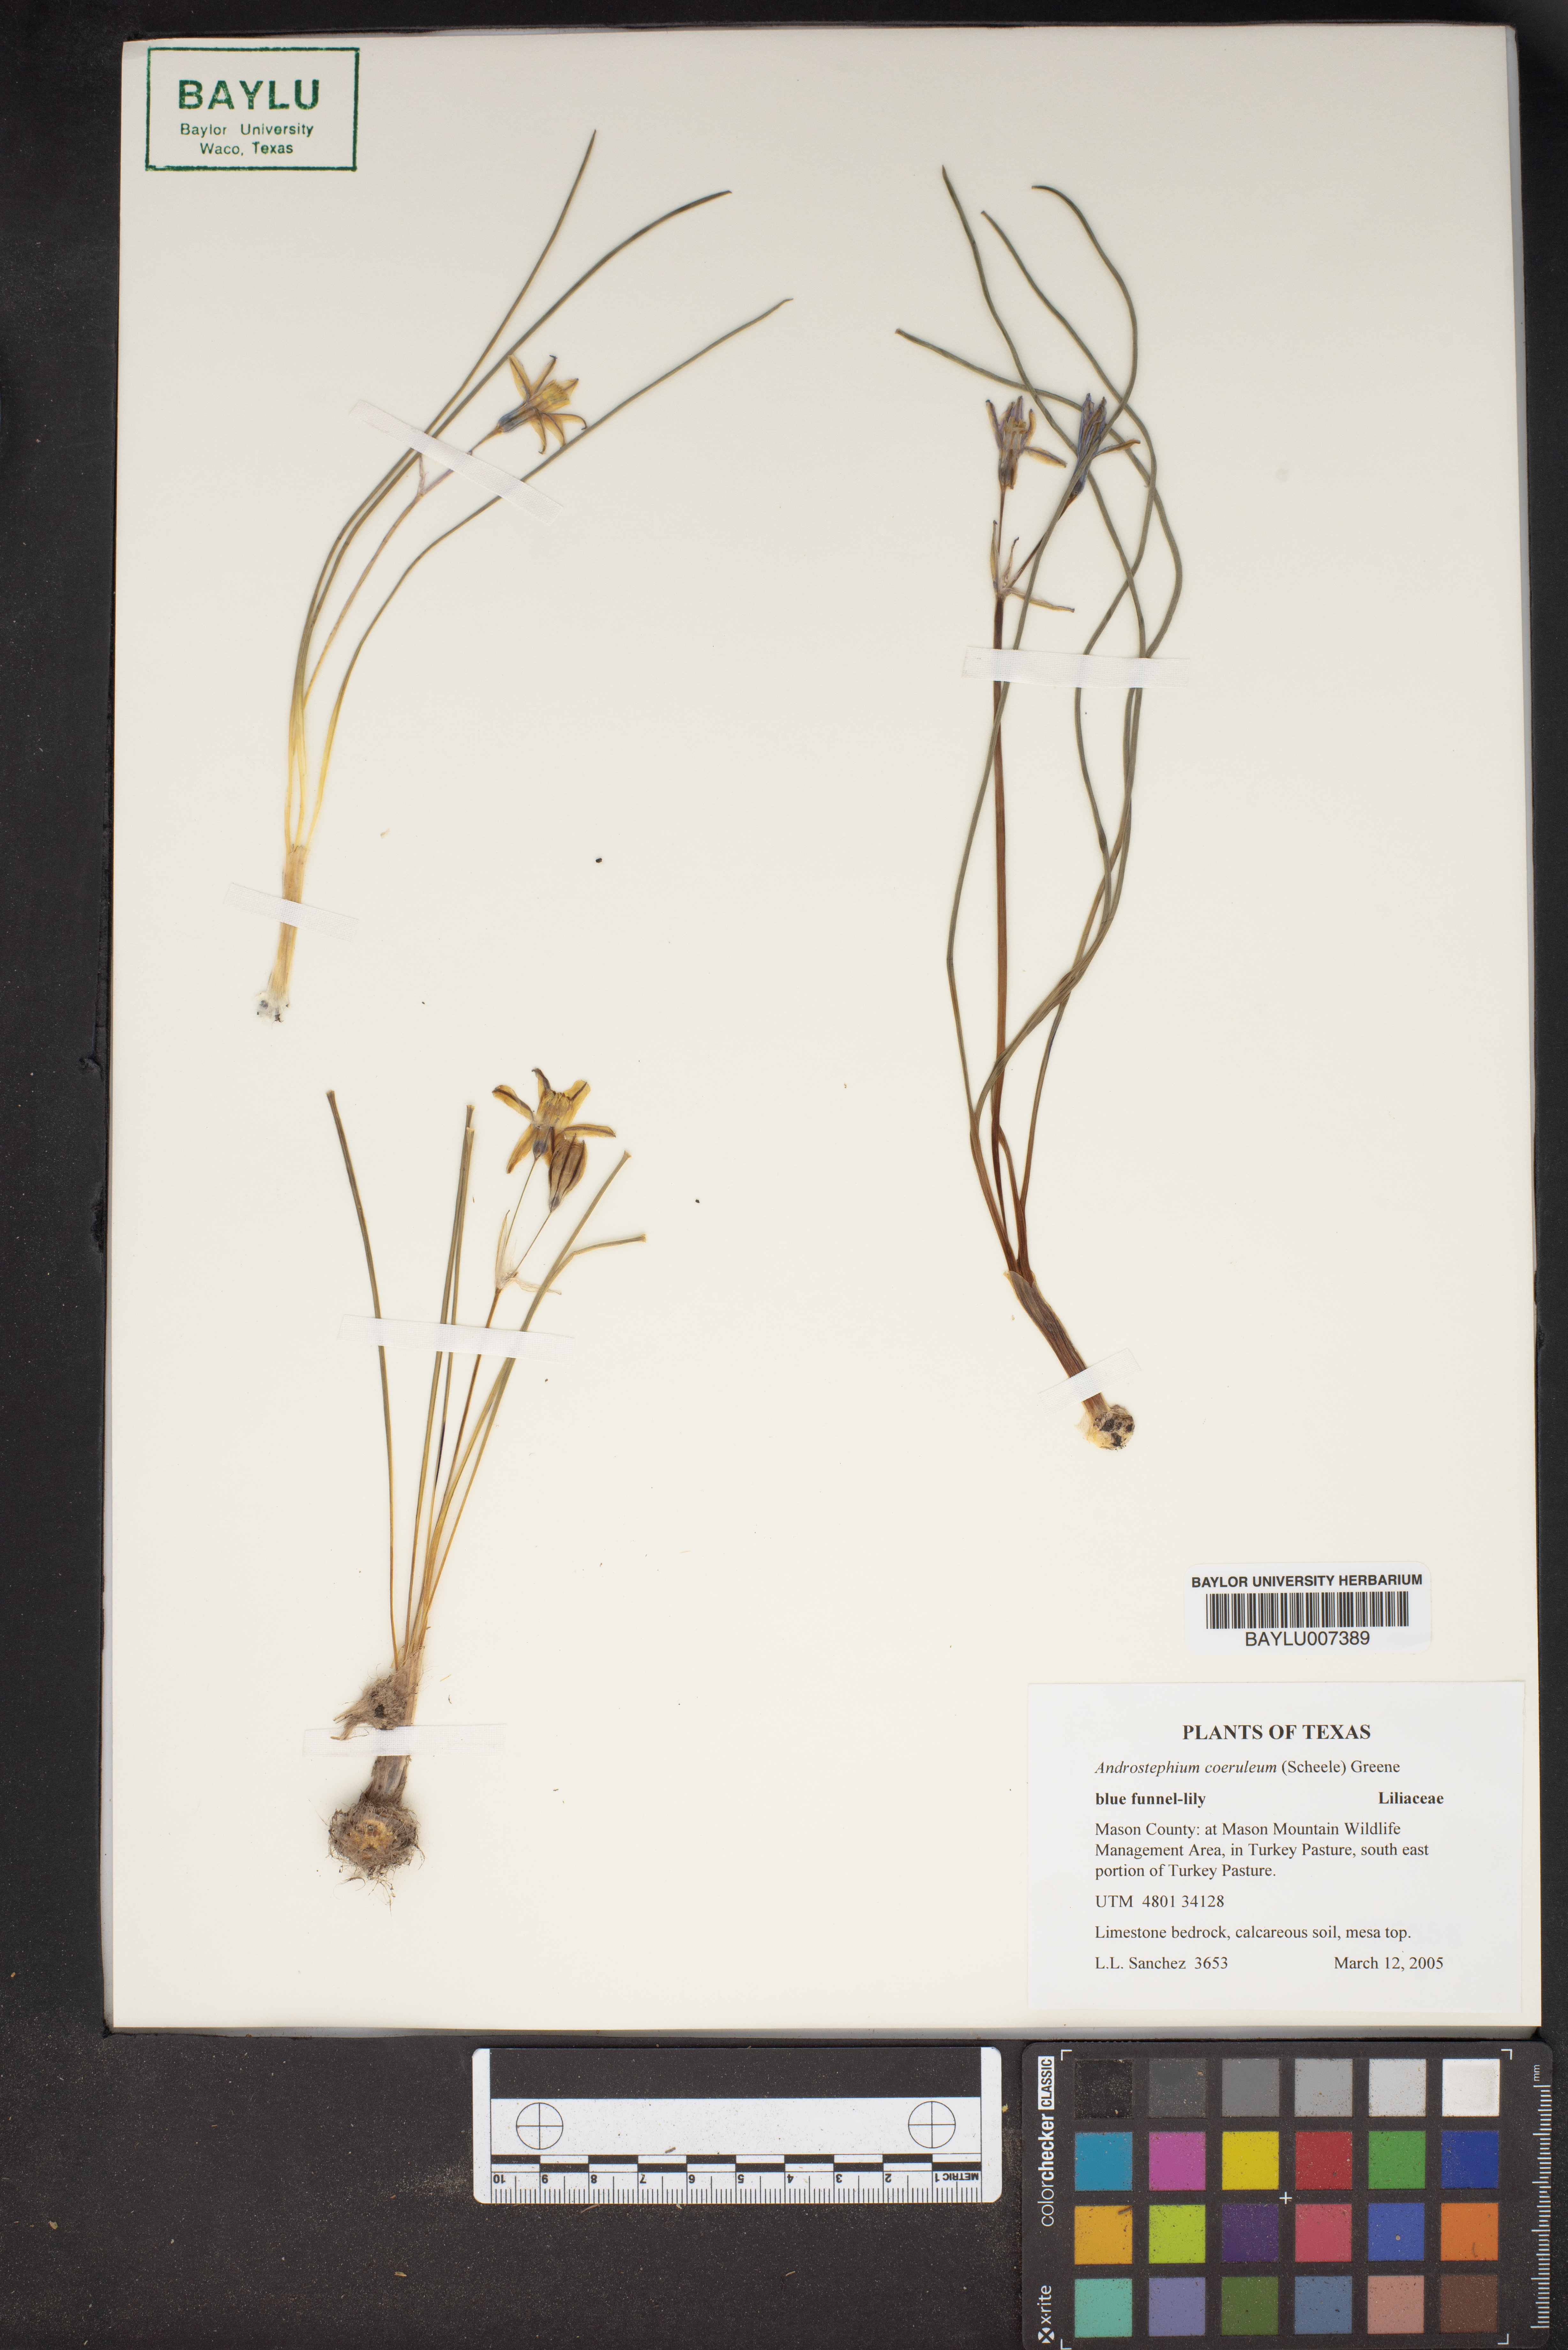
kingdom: Plantae
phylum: Tracheophyta
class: Liliopsida
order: Asparagales
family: Asparagaceae
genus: Androstephium
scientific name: Androstephium coeruleum
